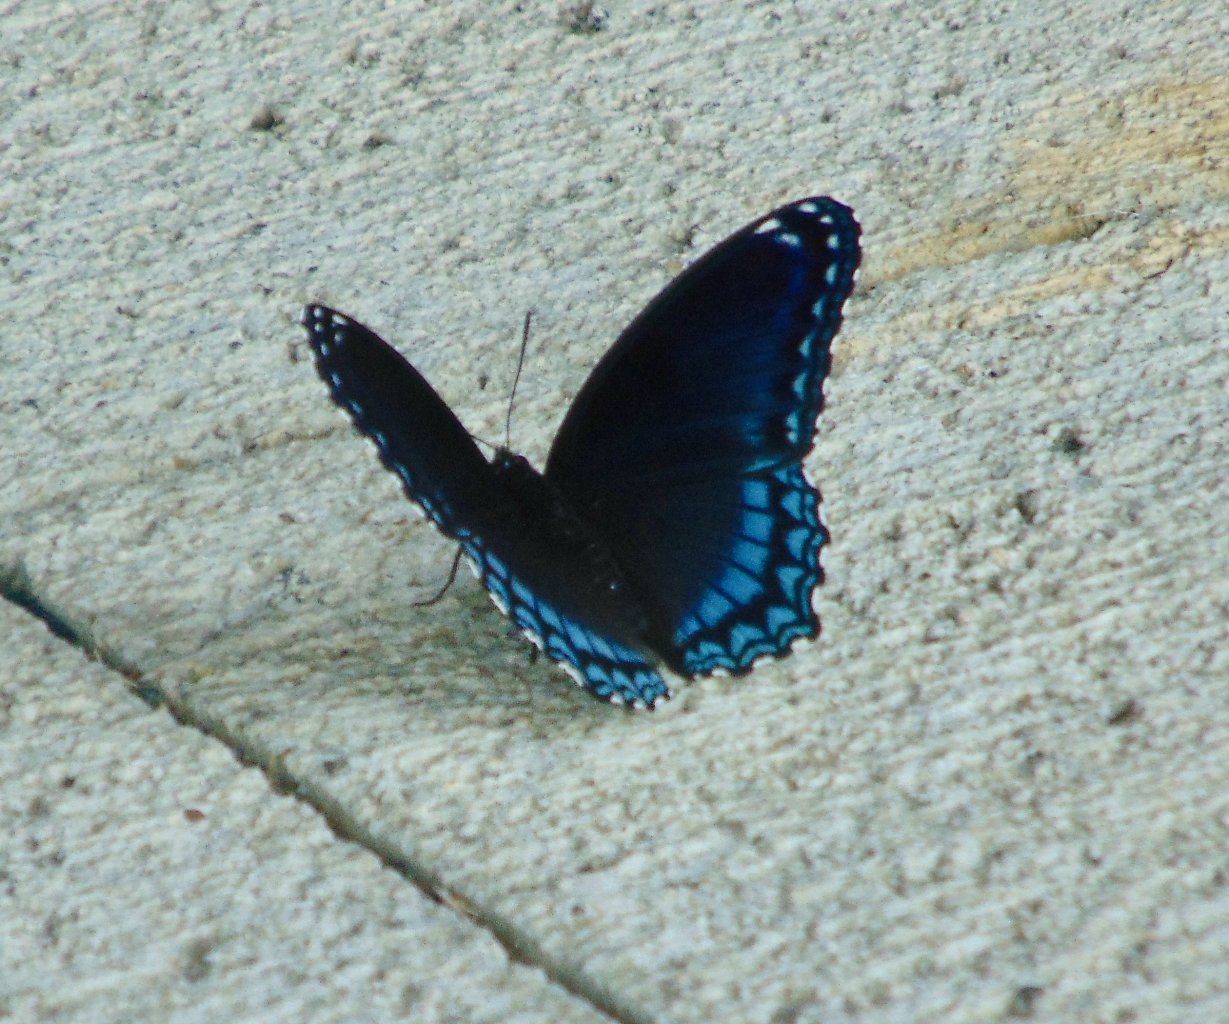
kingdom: Animalia
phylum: Arthropoda
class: Insecta
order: Lepidoptera
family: Nymphalidae
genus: Limenitis
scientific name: Limenitis astyanax
